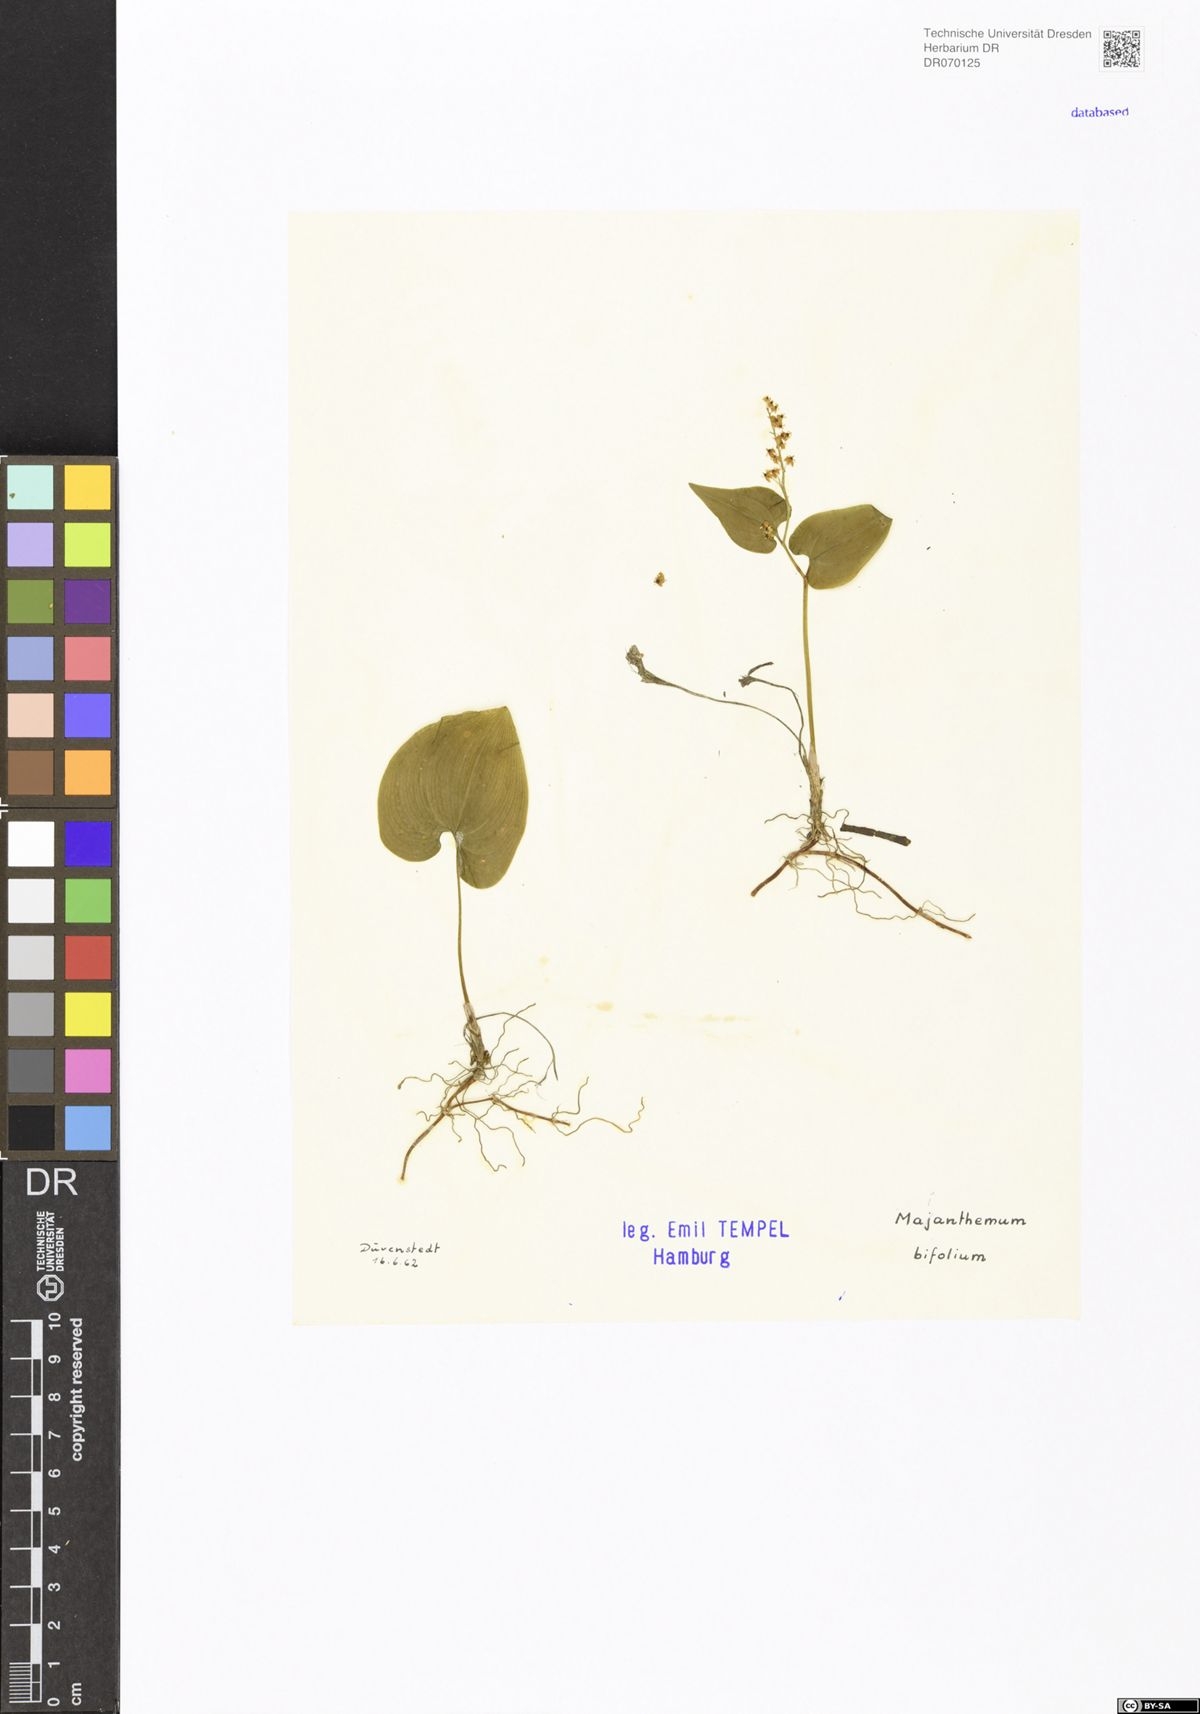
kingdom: Plantae
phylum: Tracheophyta
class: Liliopsida
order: Asparagales
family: Asparagaceae
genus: Maianthemum
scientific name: Maianthemum bifolium
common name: May lily
